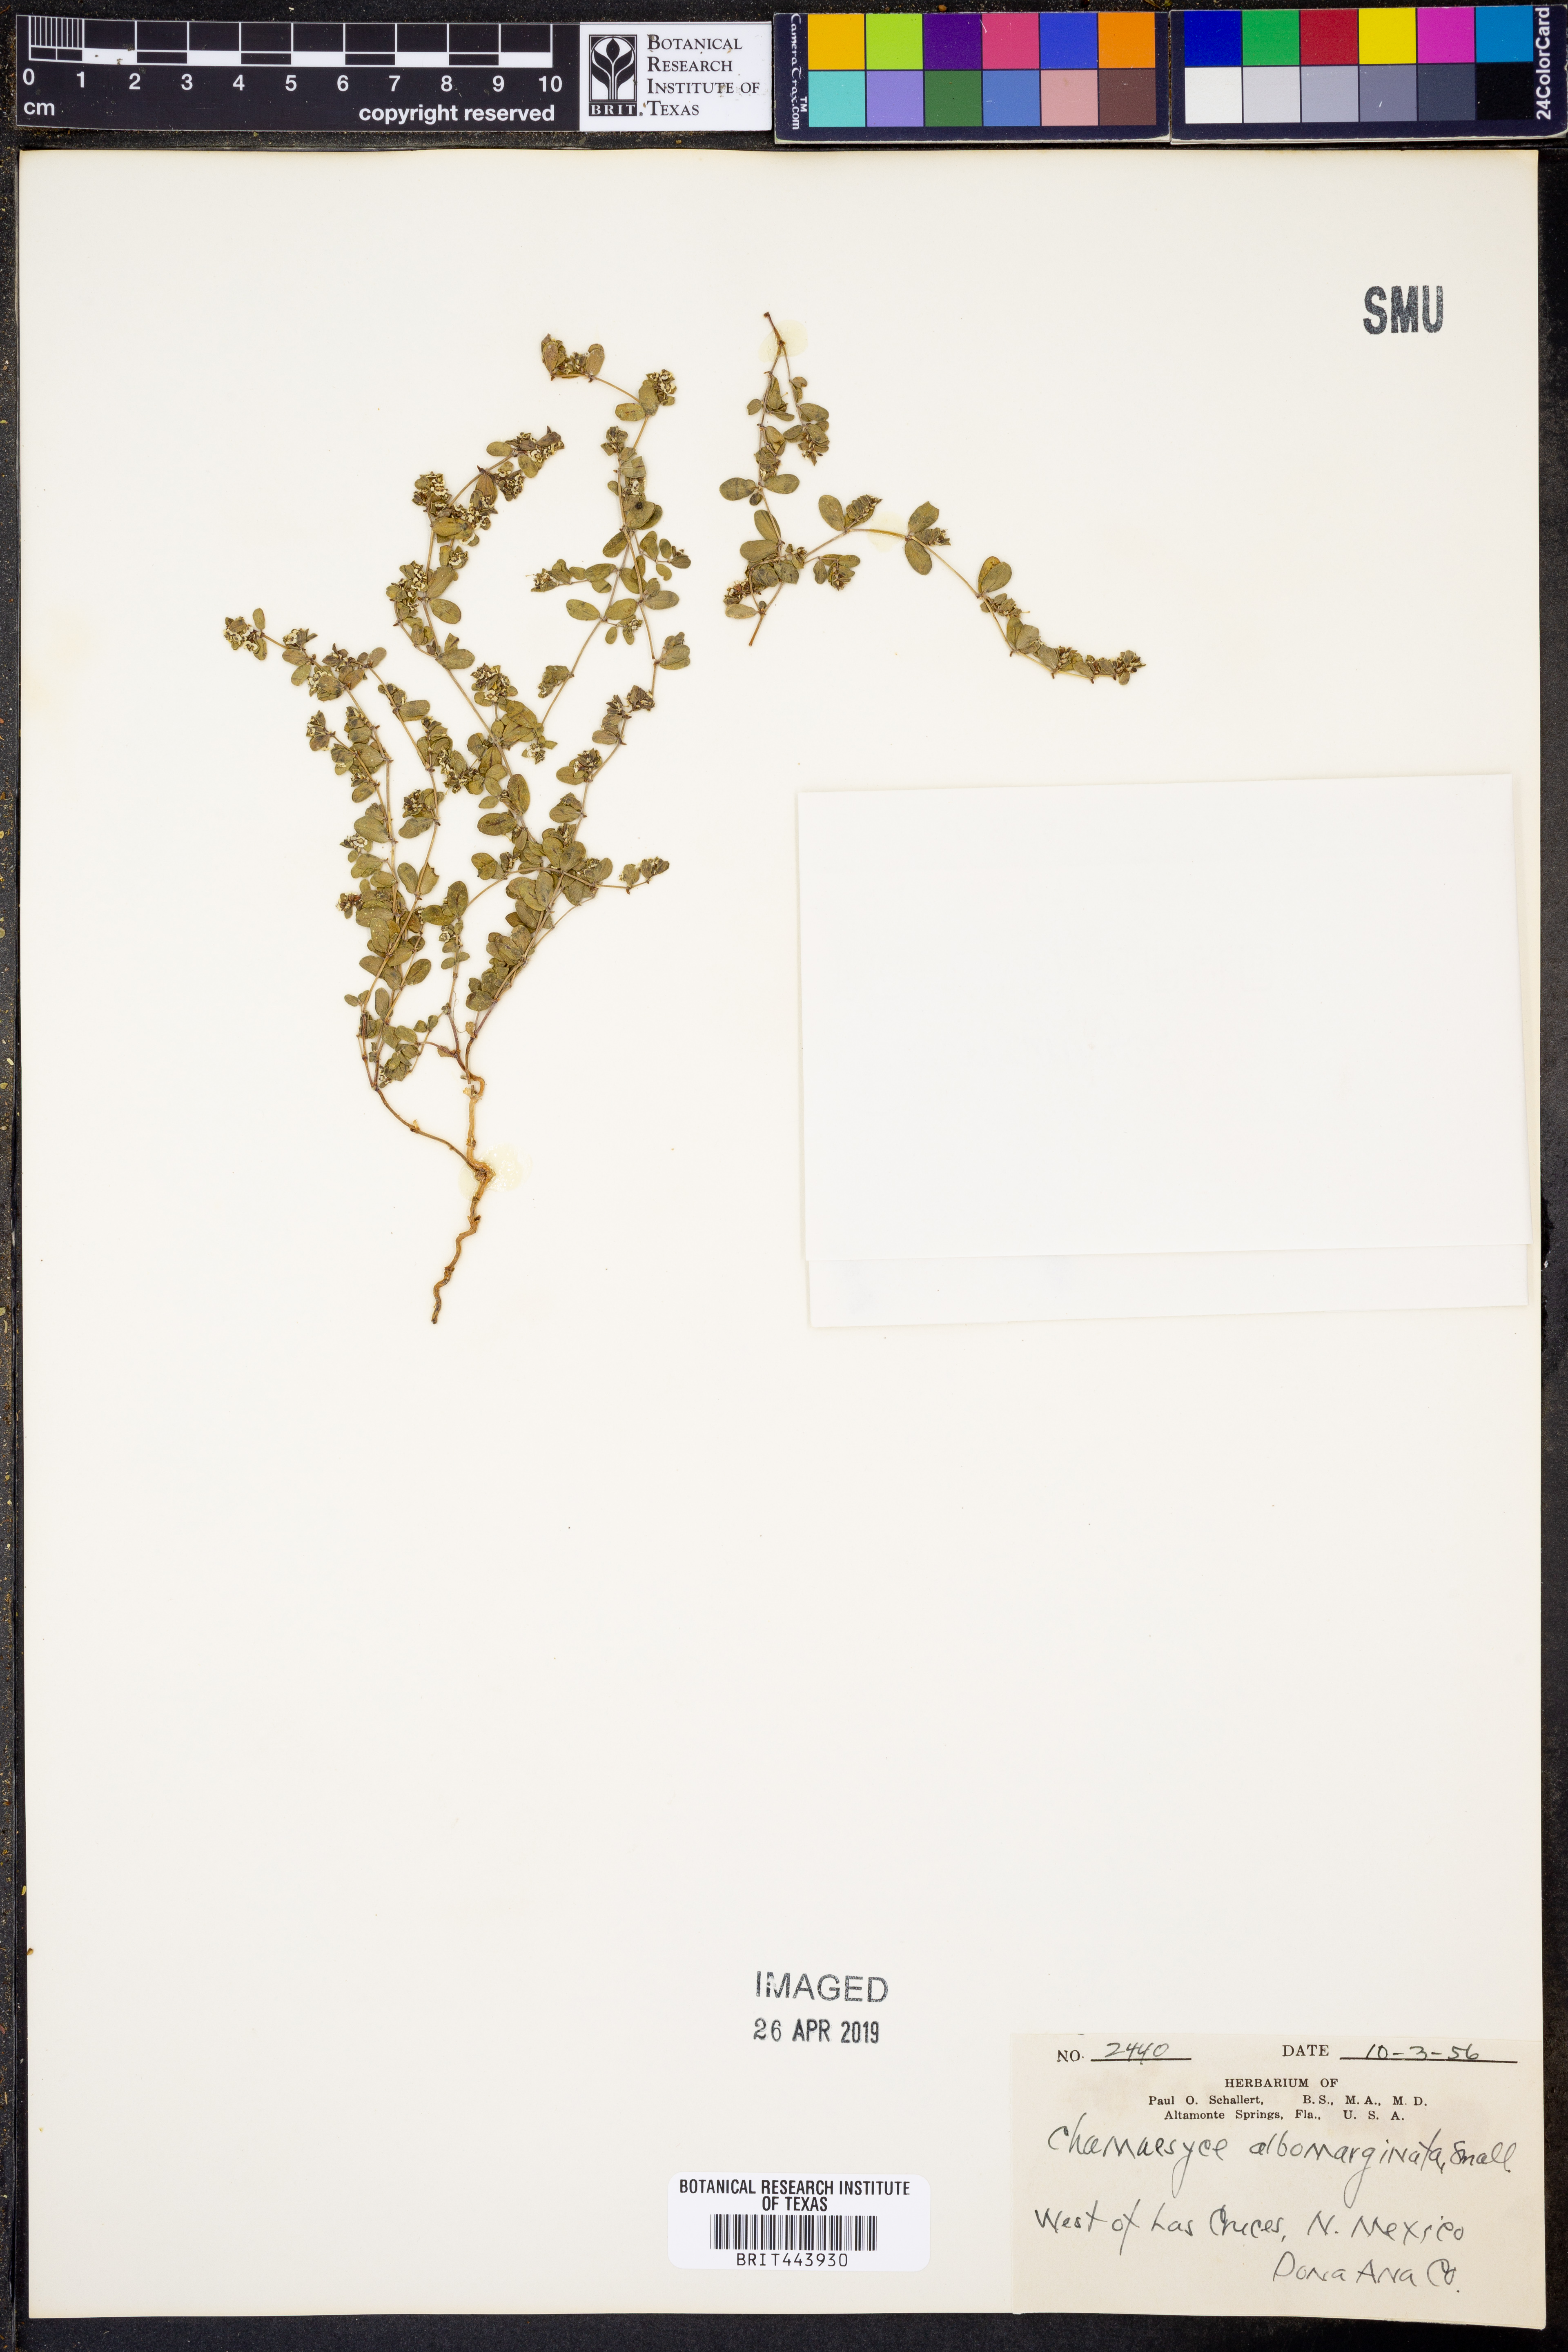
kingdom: Plantae
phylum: Tracheophyta
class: Magnoliopsida
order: Malpighiales
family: Euphorbiaceae
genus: Euphorbia
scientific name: Euphorbia albomarginata
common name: Whitemargin sandmat
